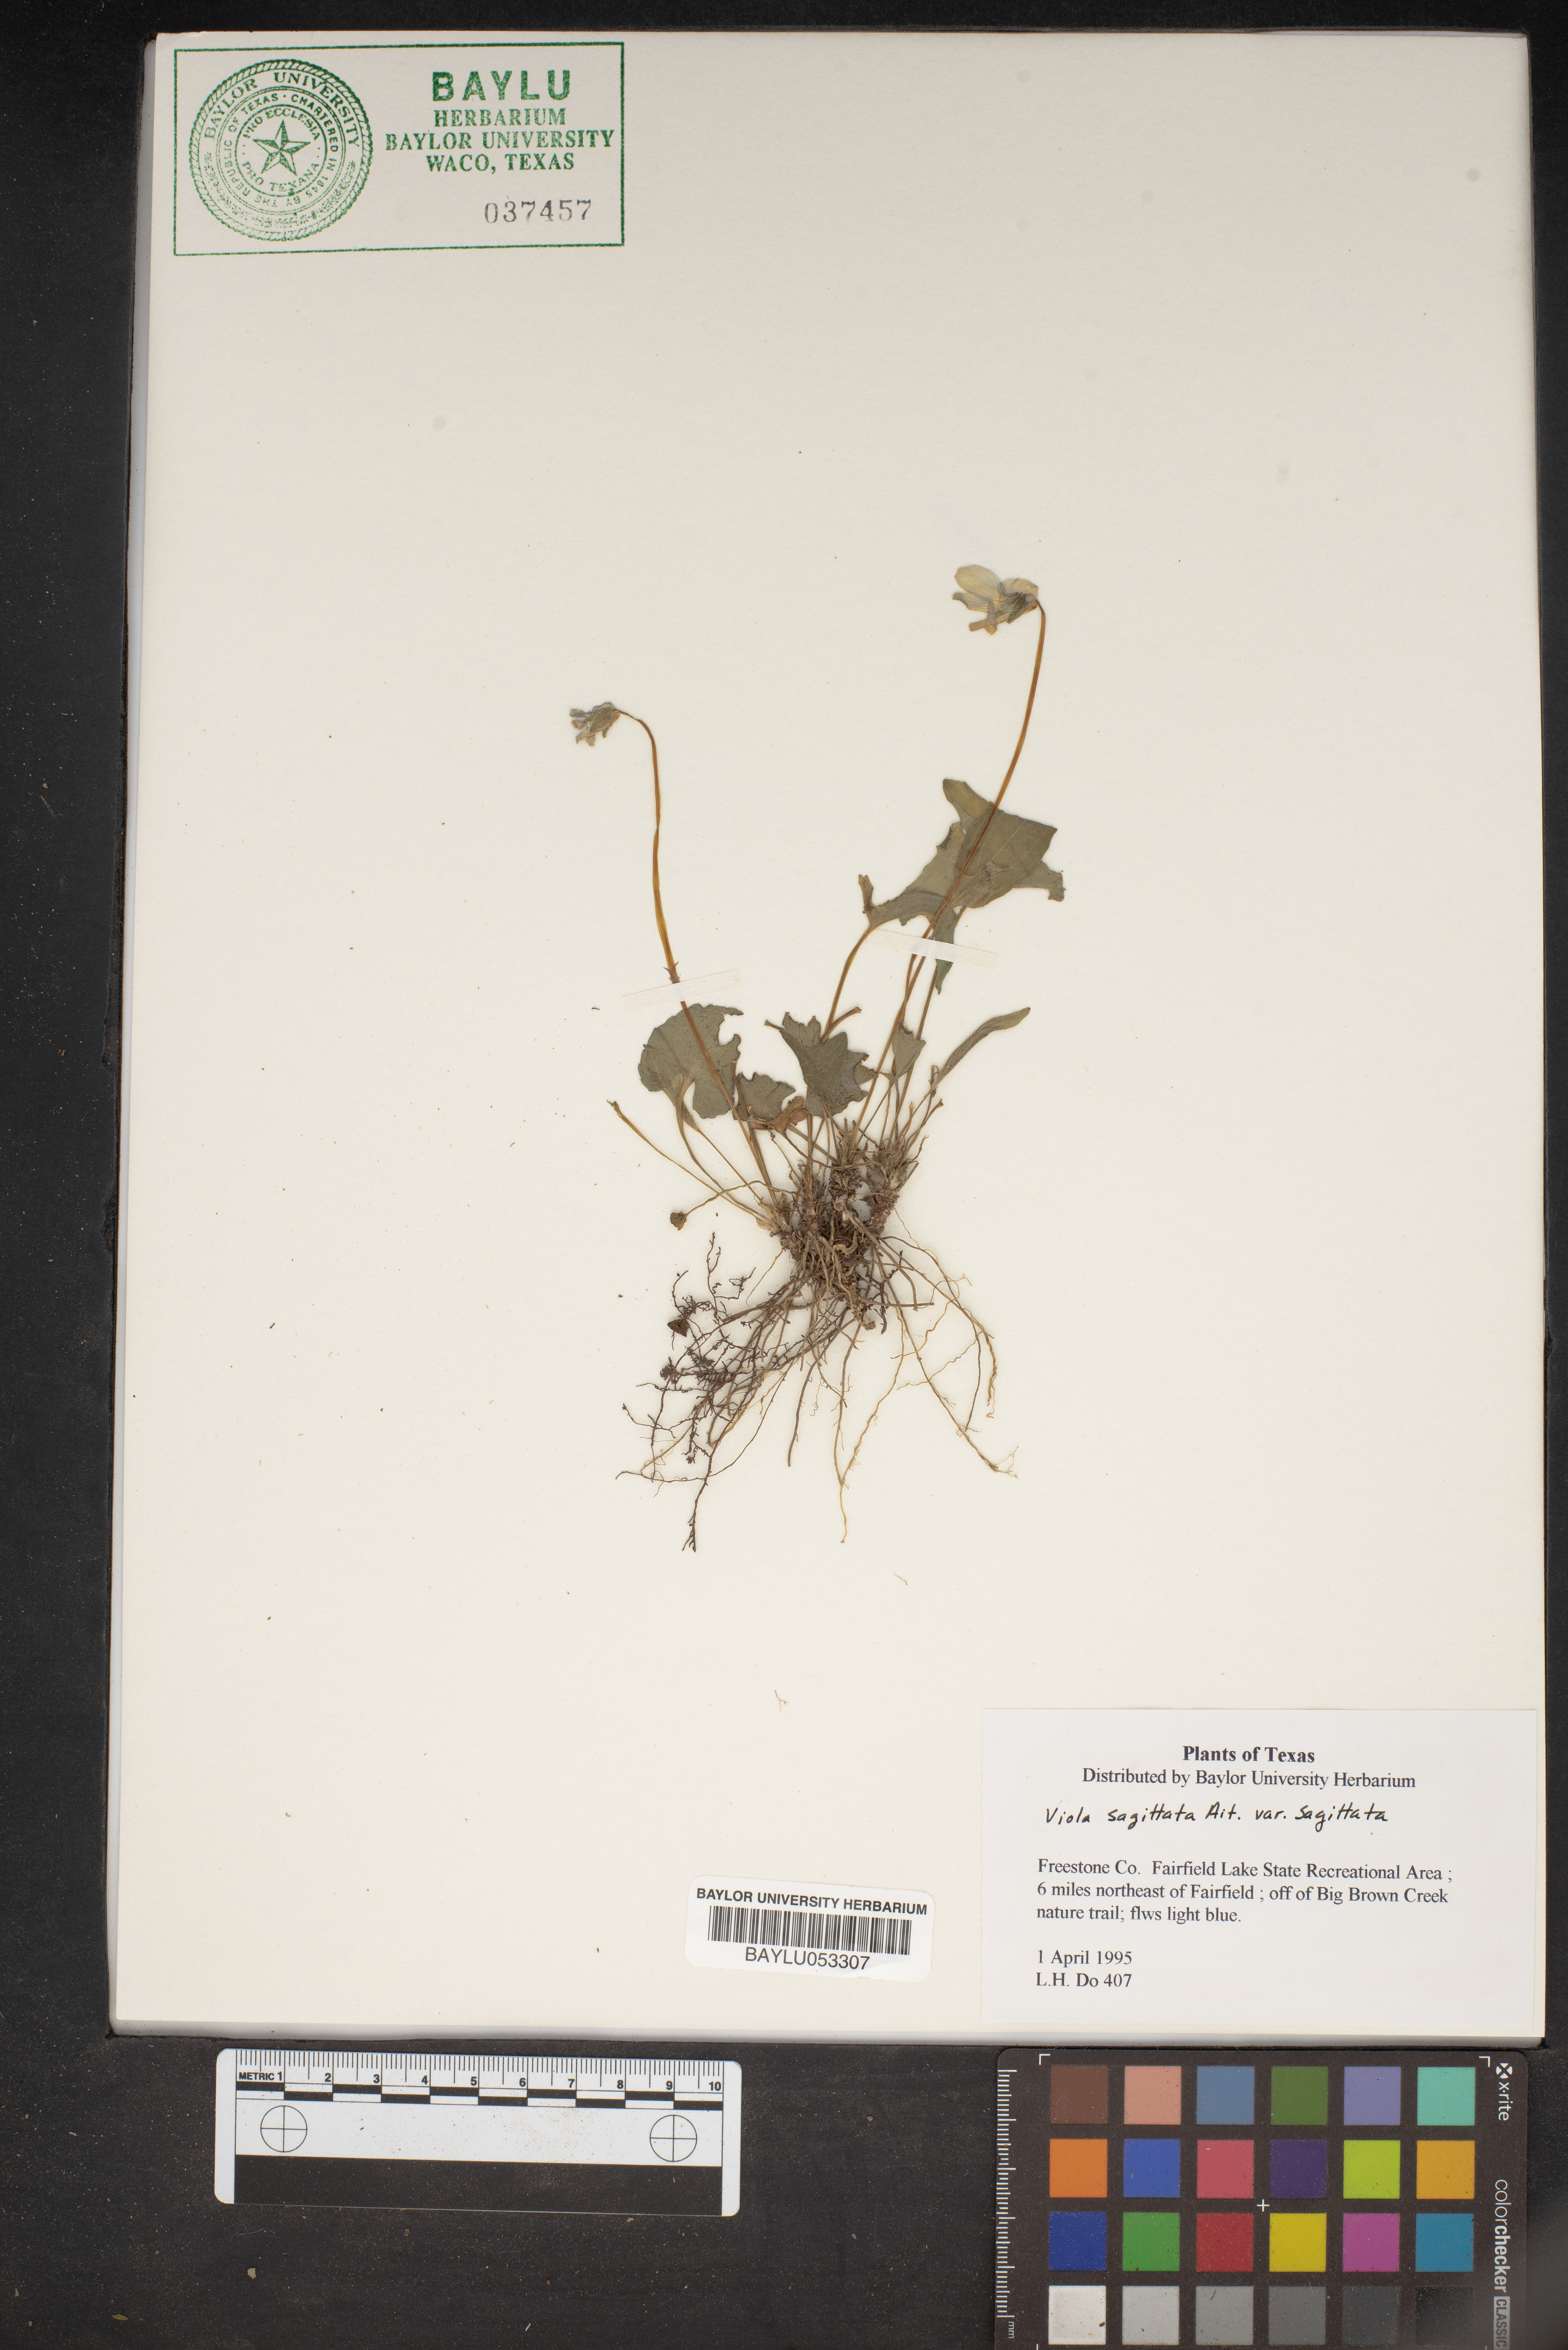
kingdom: Plantae
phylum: Tracheophyta
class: Magnoliopsida
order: Malpighiales
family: Violaceae
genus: Viola
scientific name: Viola sagittata
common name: Arrowhead violet
